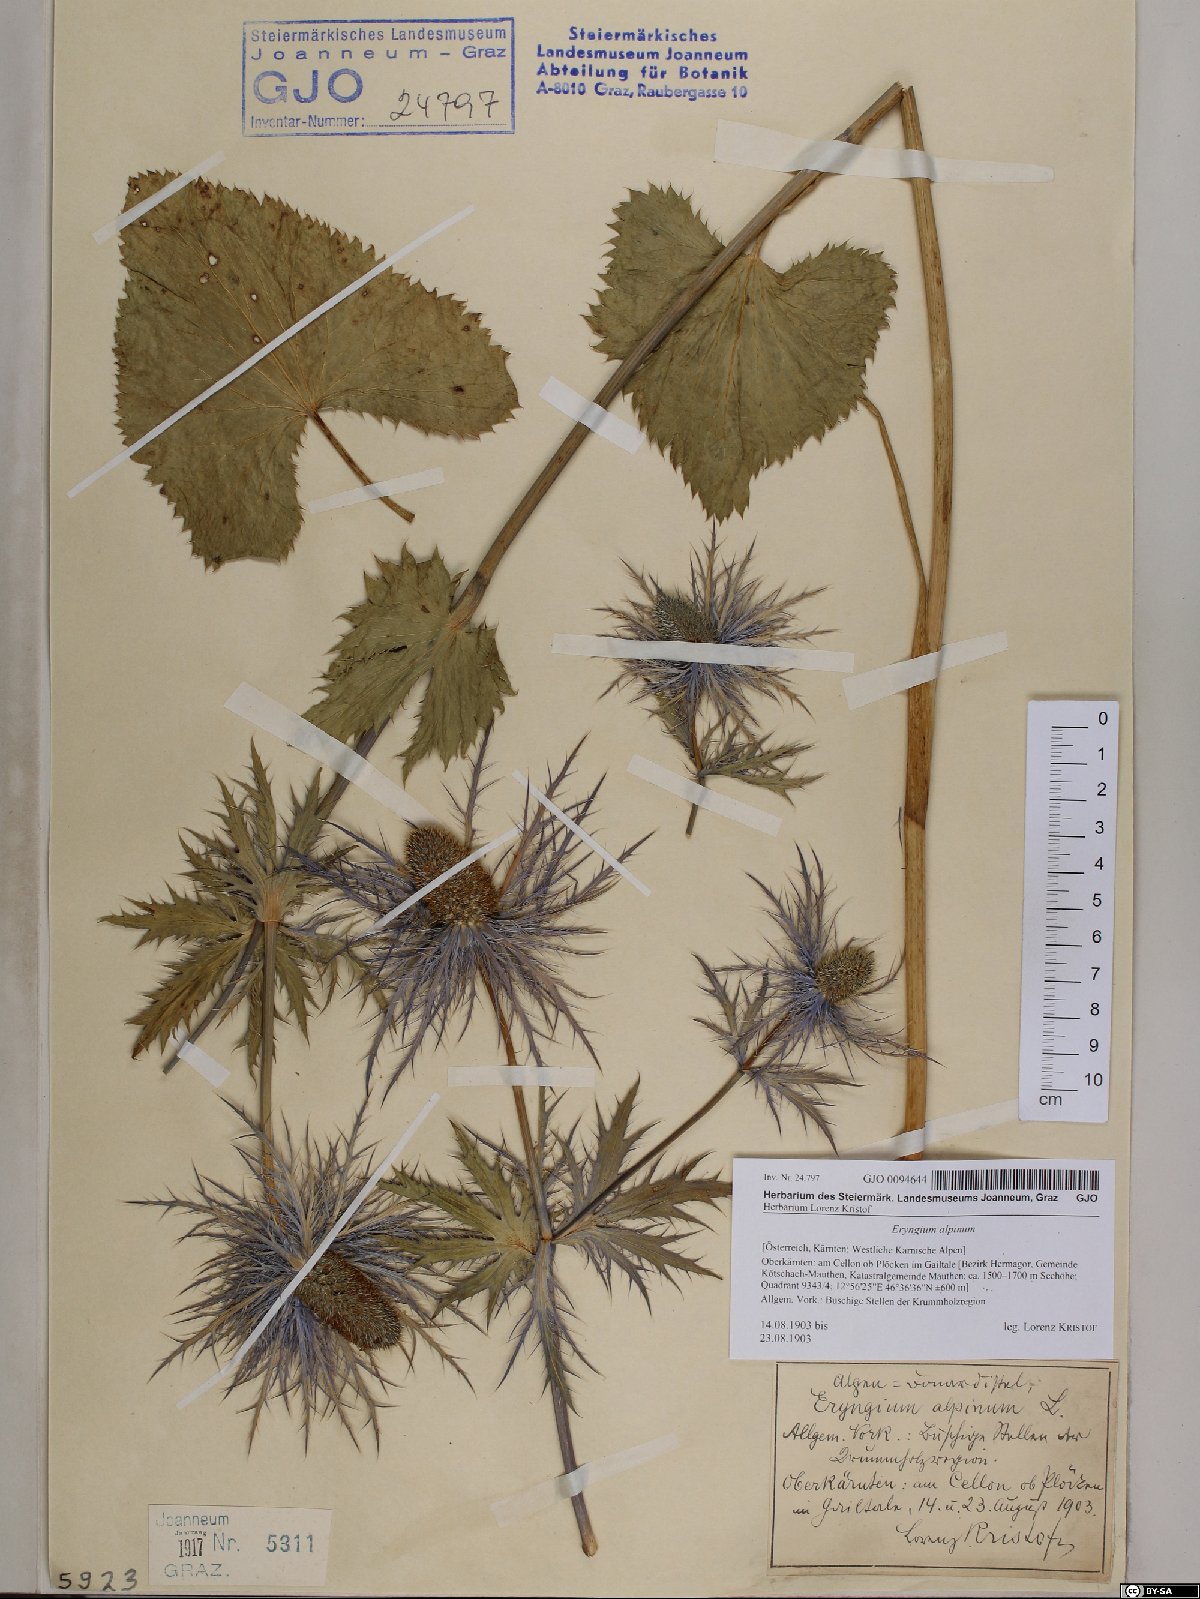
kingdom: Plantae
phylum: Tracheophyta
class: Magnoliopsida
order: Apiales
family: Apiaceae
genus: Eryngium
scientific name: Eryngium alpinum
